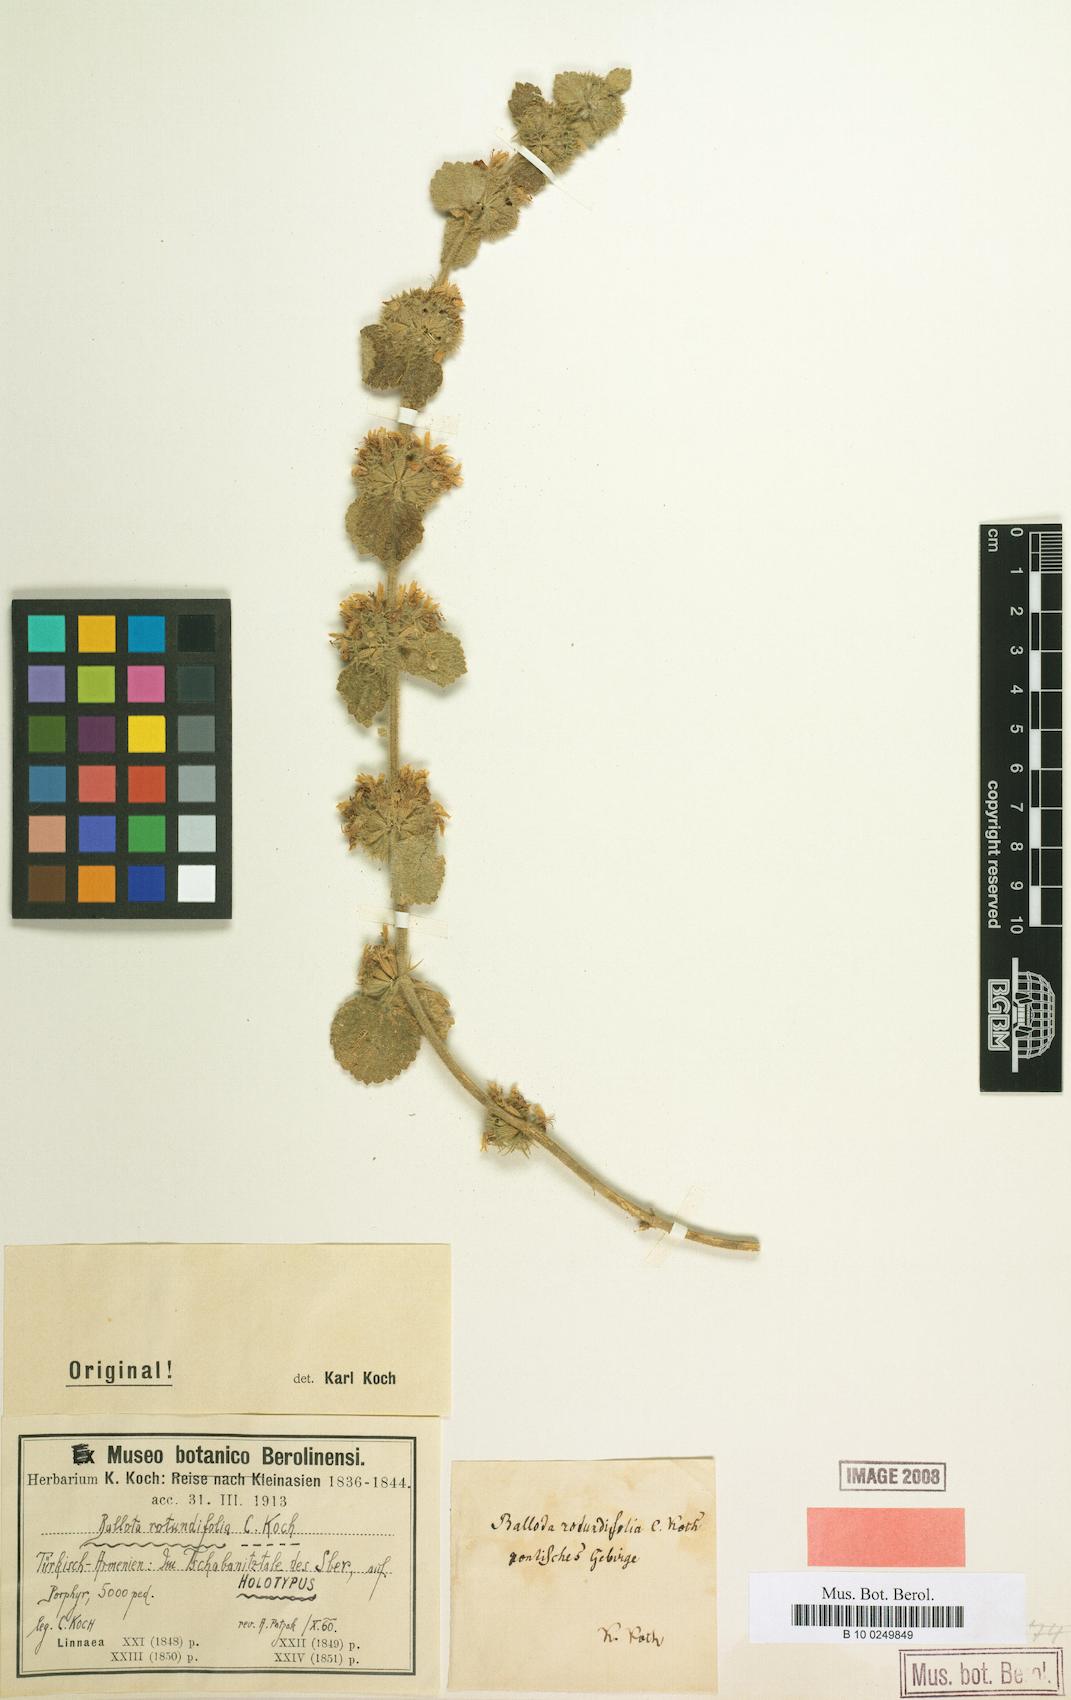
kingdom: Plantae
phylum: Tracheophyta
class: Magnoliopsida
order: Lamiales
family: Lamiaceae
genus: Pseudodictamnus
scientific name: Pseudodictamnus rotundifolius
